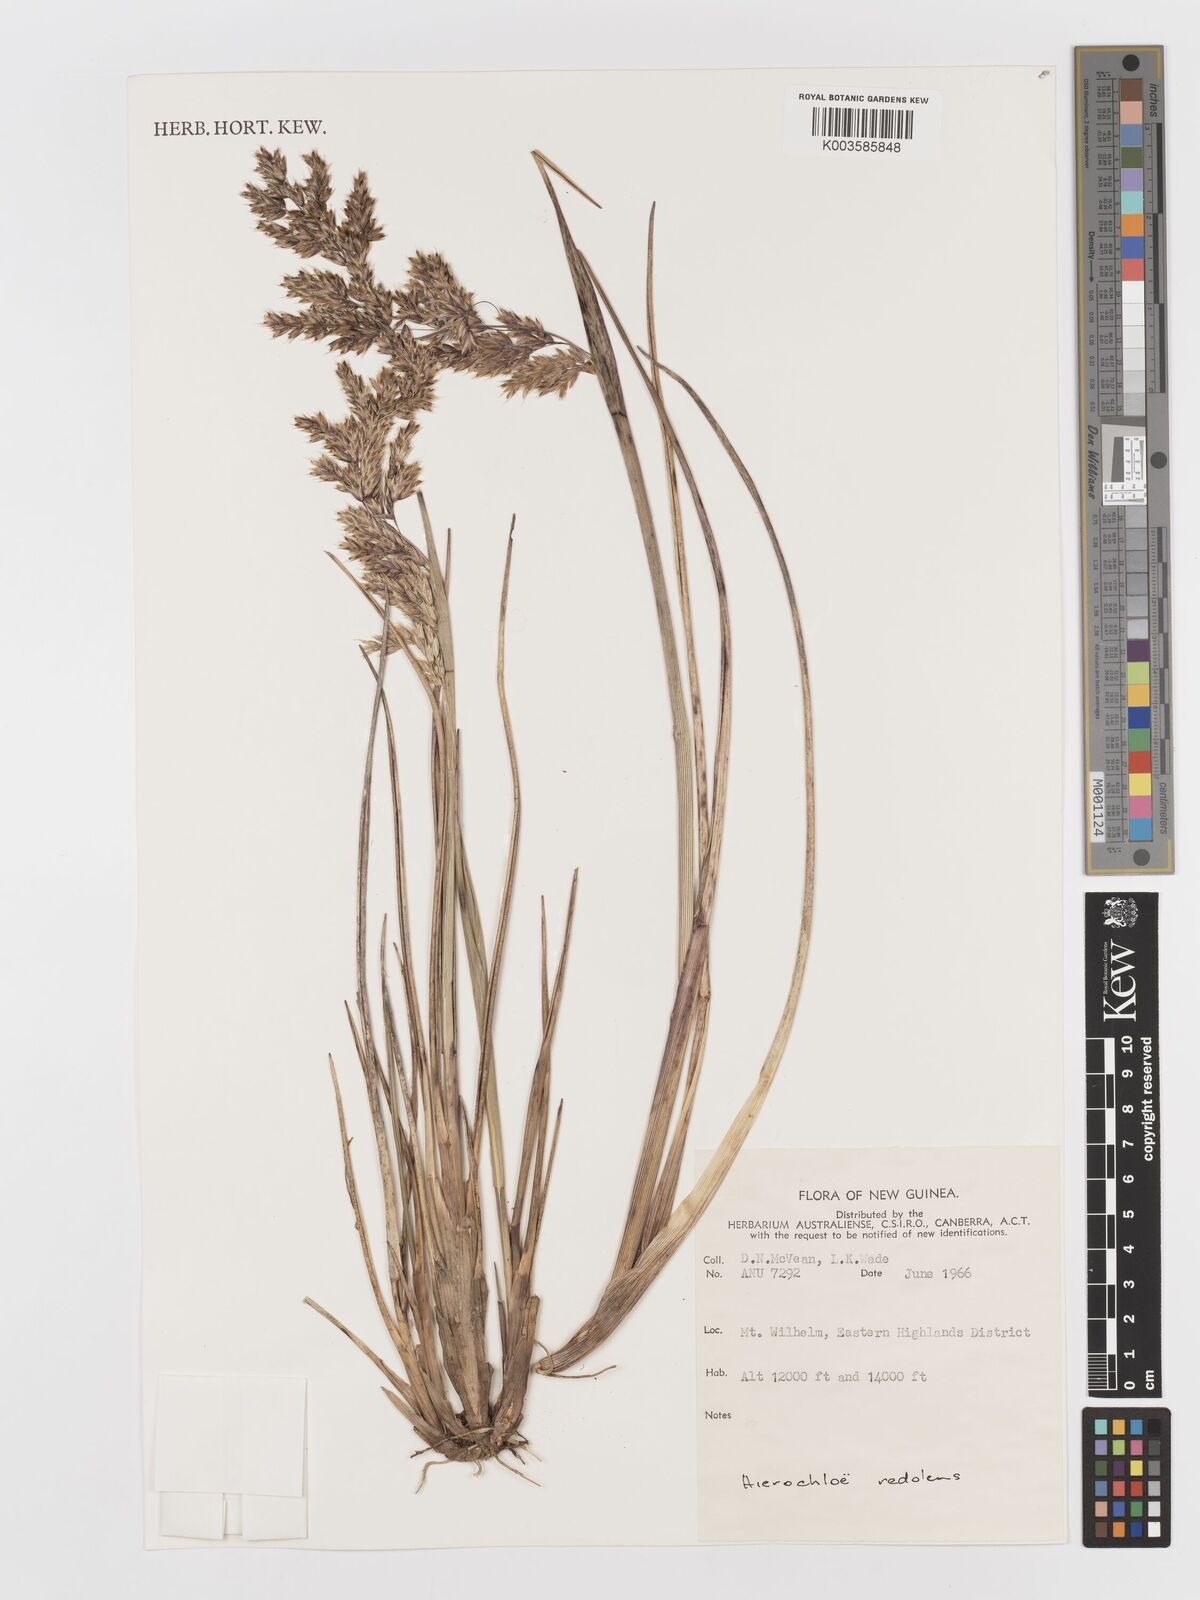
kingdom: Plantae
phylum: Tracheophyta
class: Liliopsida
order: Poales
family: Poaceae
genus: Anthoxanthum
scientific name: Anthoxanthum redolens
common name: Sweet holy grass
